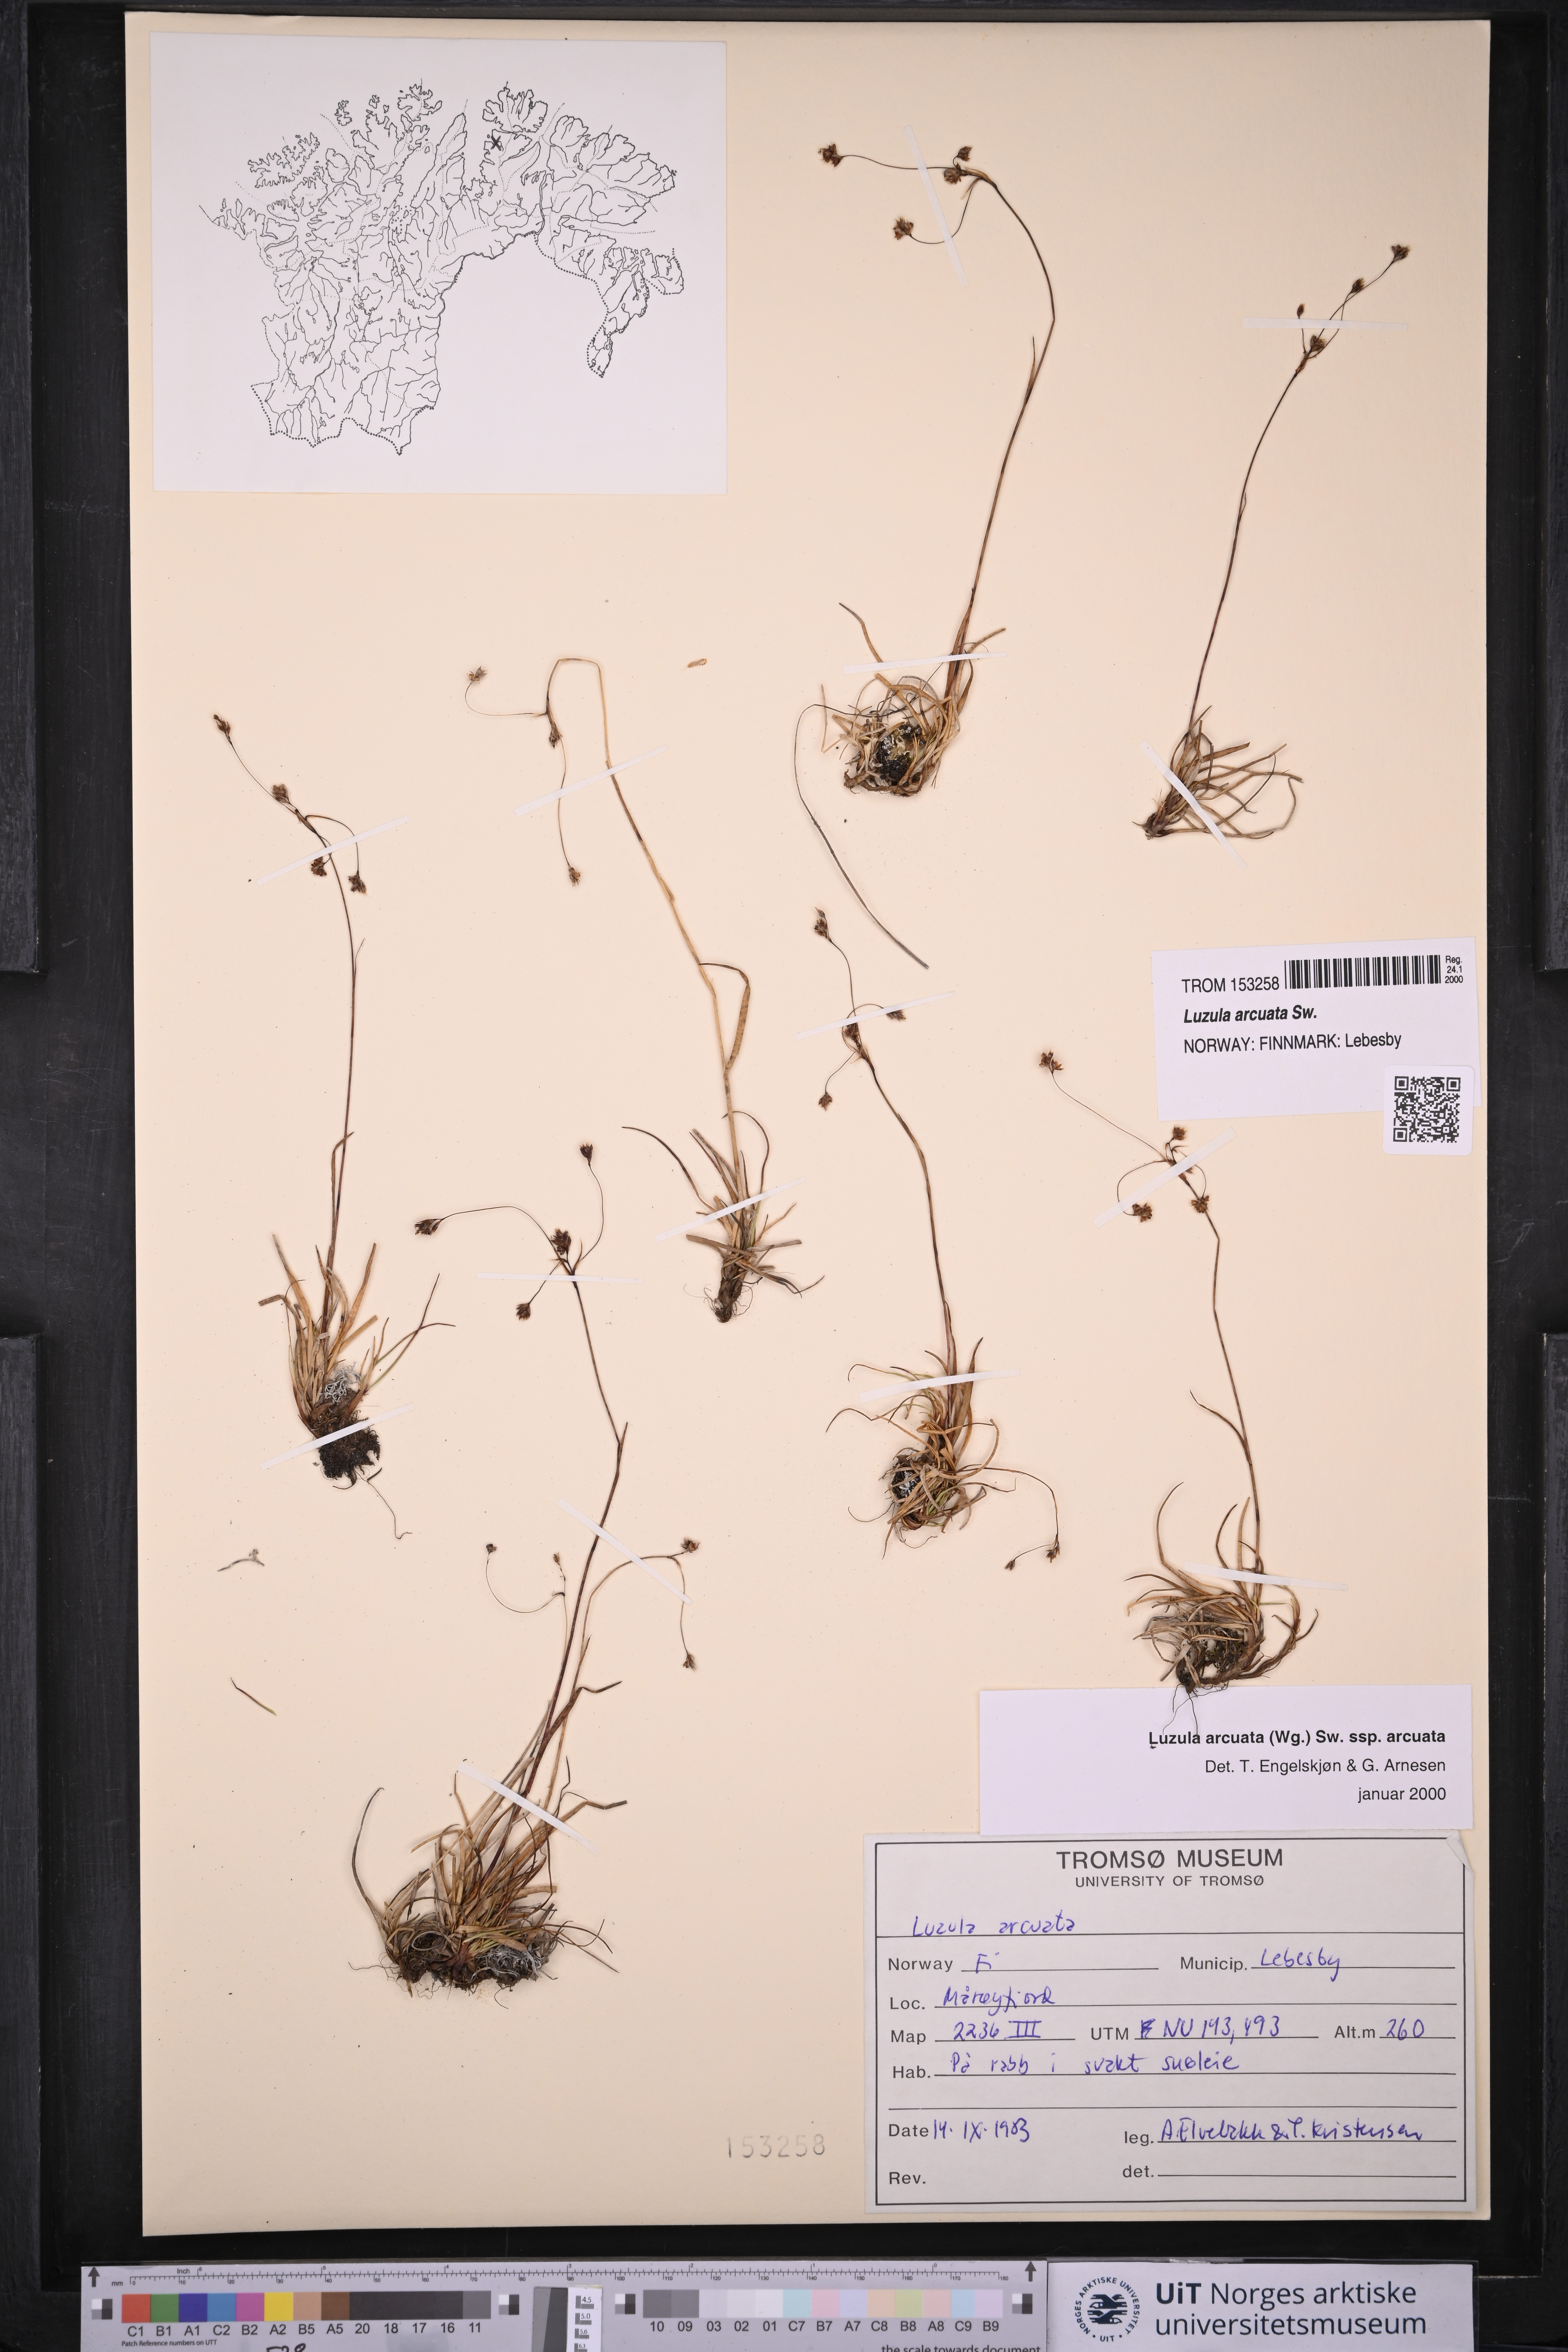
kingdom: Plantae
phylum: Tracheophyta
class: Liliopsida
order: Poales
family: Juncaceae
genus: Luzula
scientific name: Luzula arcuata
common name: Curved wood-rush
